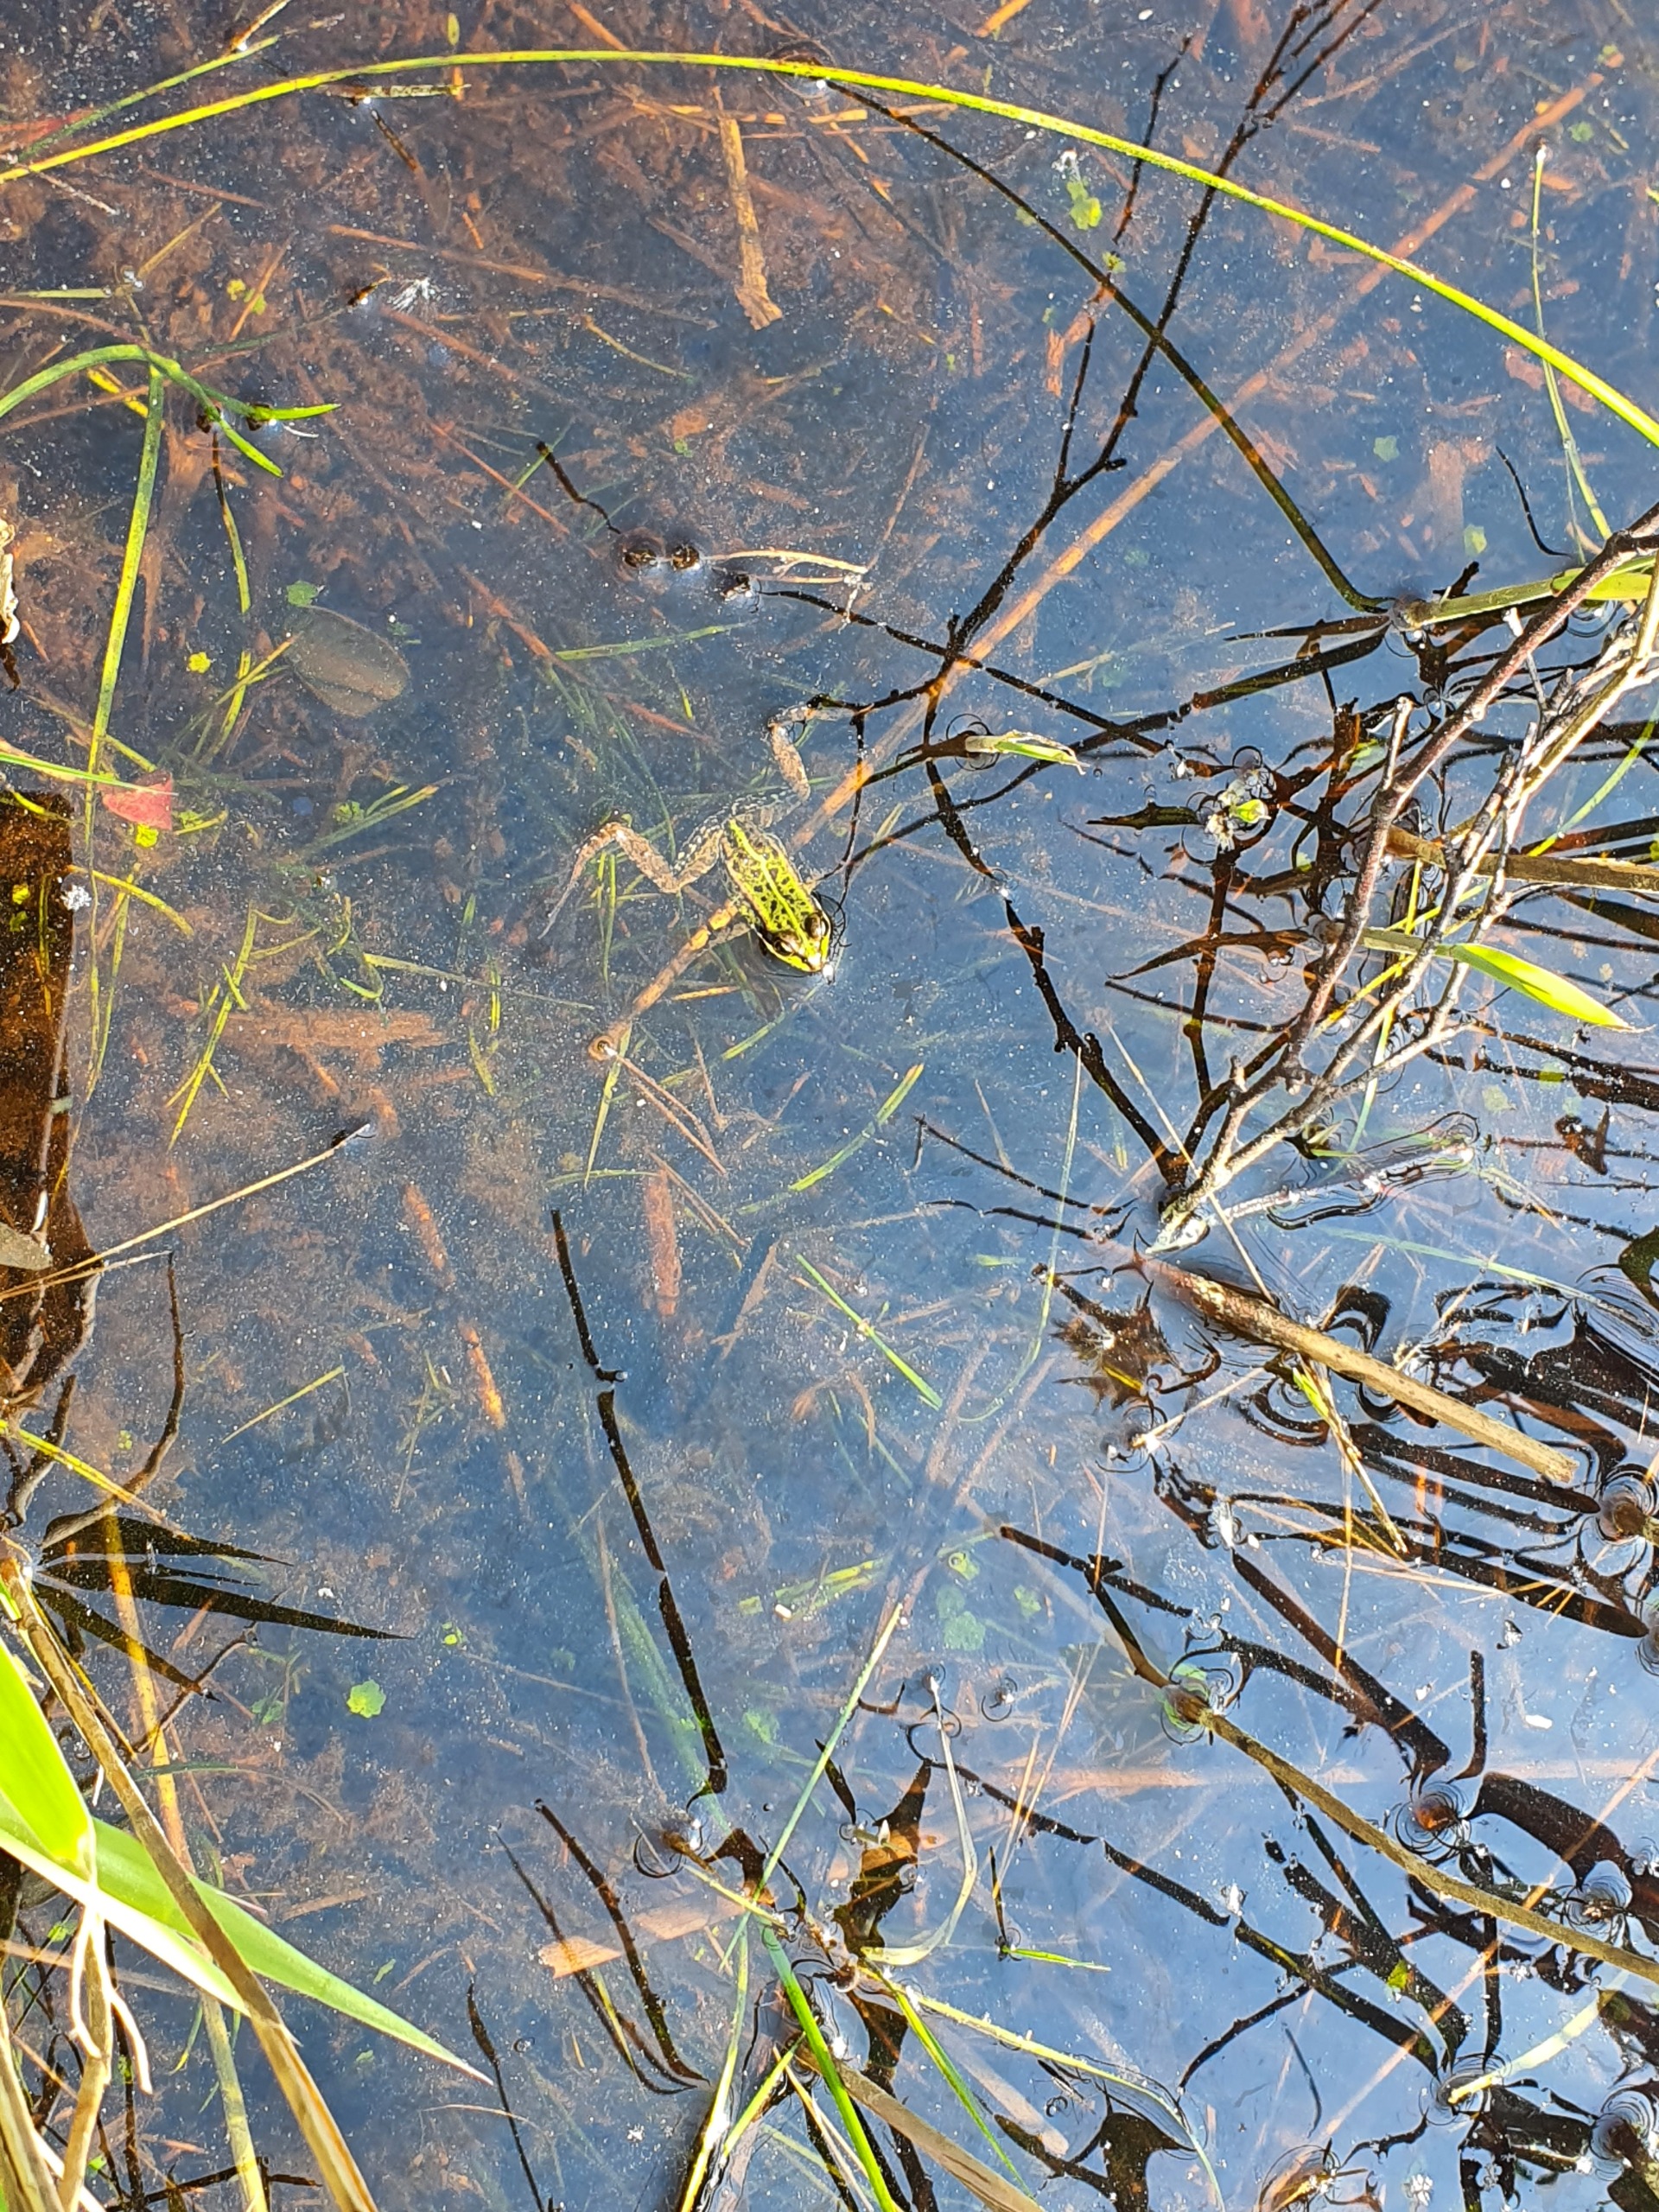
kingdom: Animalia
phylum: Chordata
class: Amphibia
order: Anura
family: Ranidae
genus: Pelophylax
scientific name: Pelophylax lessonae
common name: Grøn frø
